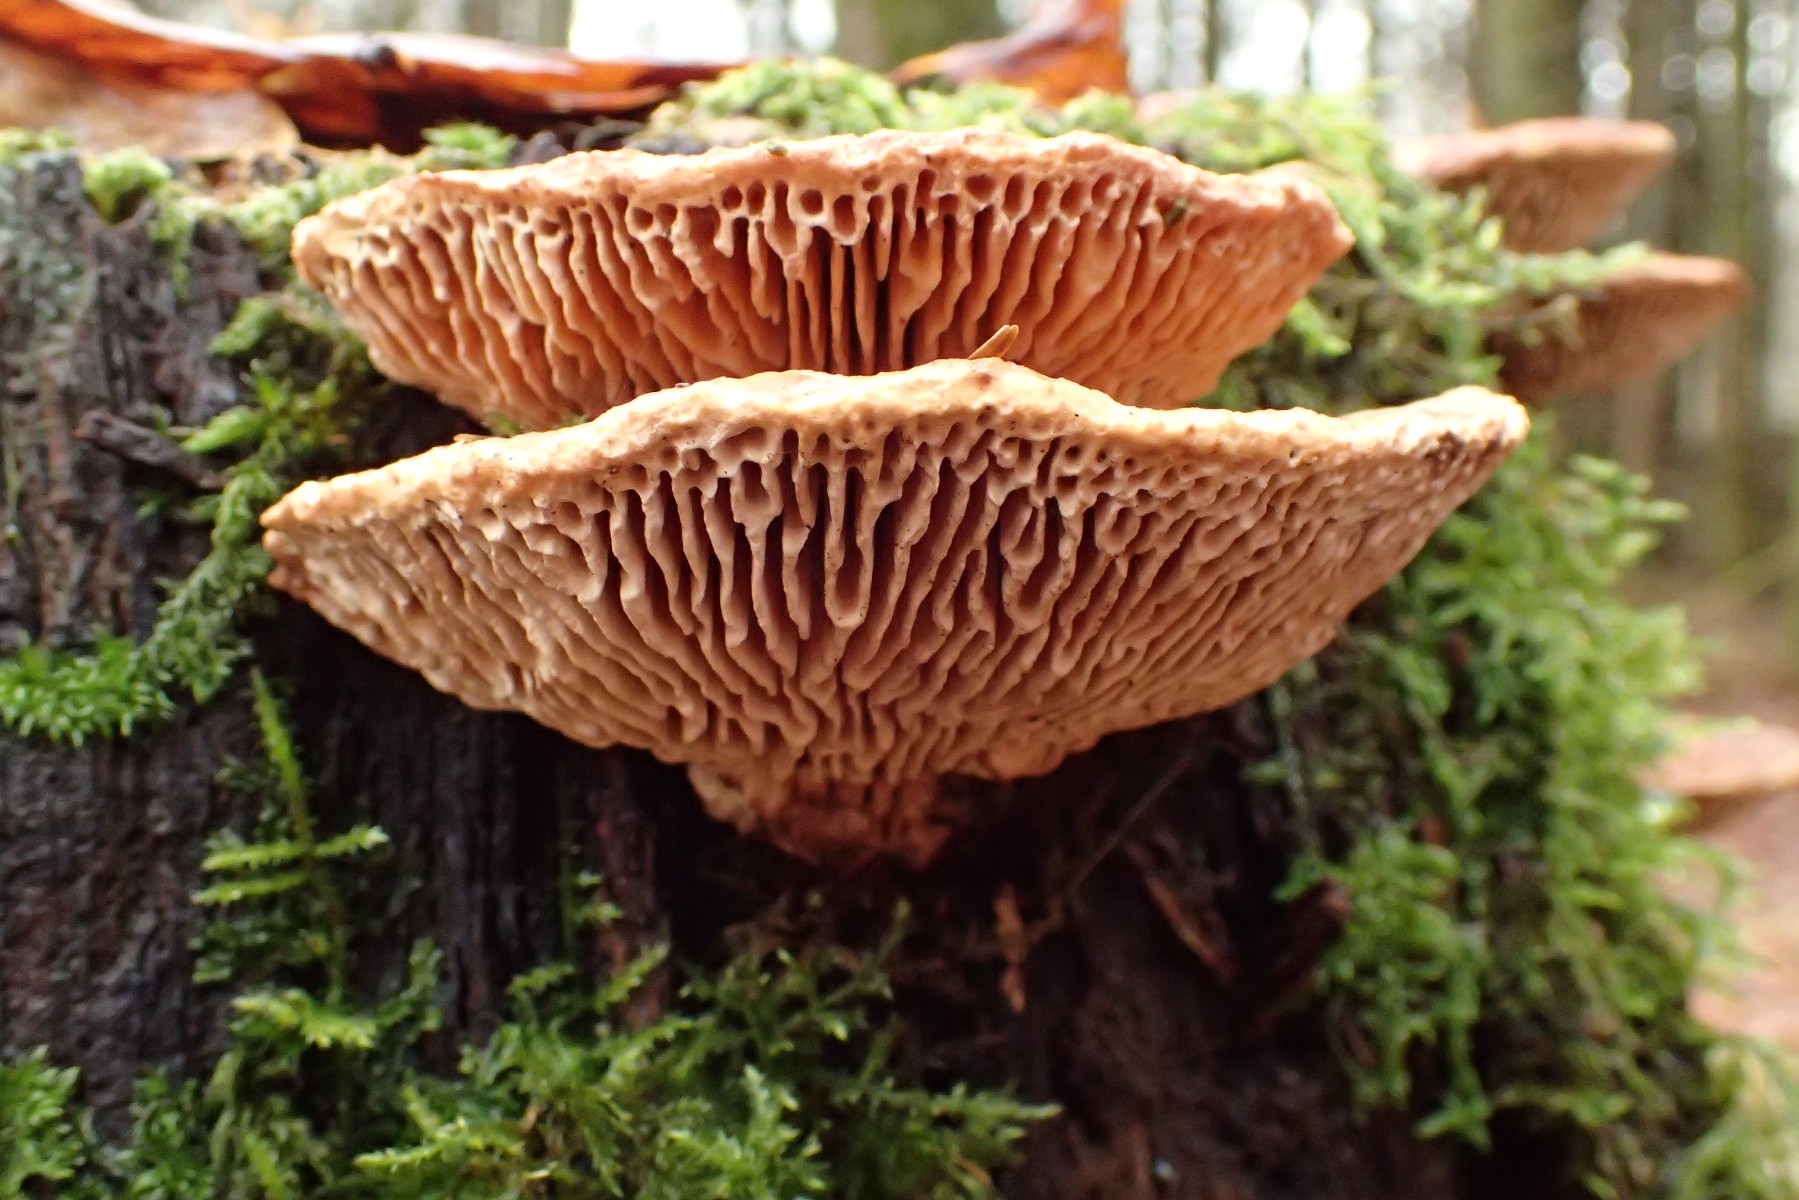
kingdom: Fungi
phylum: Basidiomycota
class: Agaricomycetes
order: Polyporales
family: Fomitopsidaceae
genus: Daedalea
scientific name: Daedalea quercina
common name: ege-labyrintsvamp
